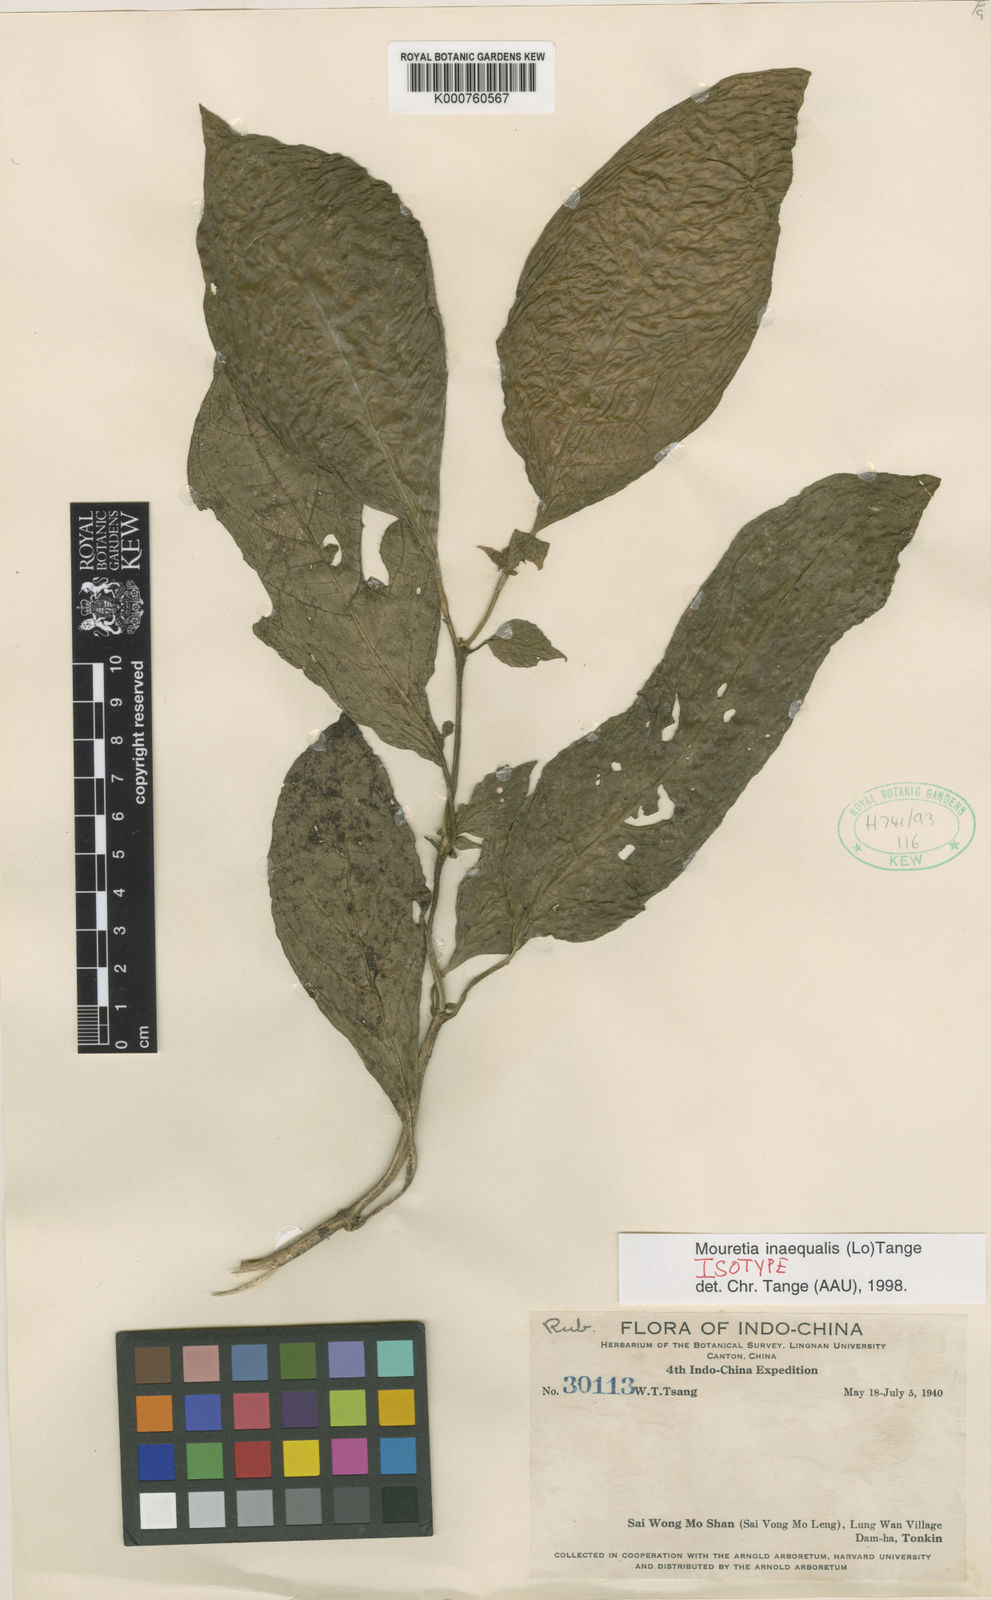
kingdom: Plantae
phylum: Tracheophyta
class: Magnoliopsida
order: Gentianales
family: Rubiaceae
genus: Mouretia
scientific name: Mouretia inaequalis
